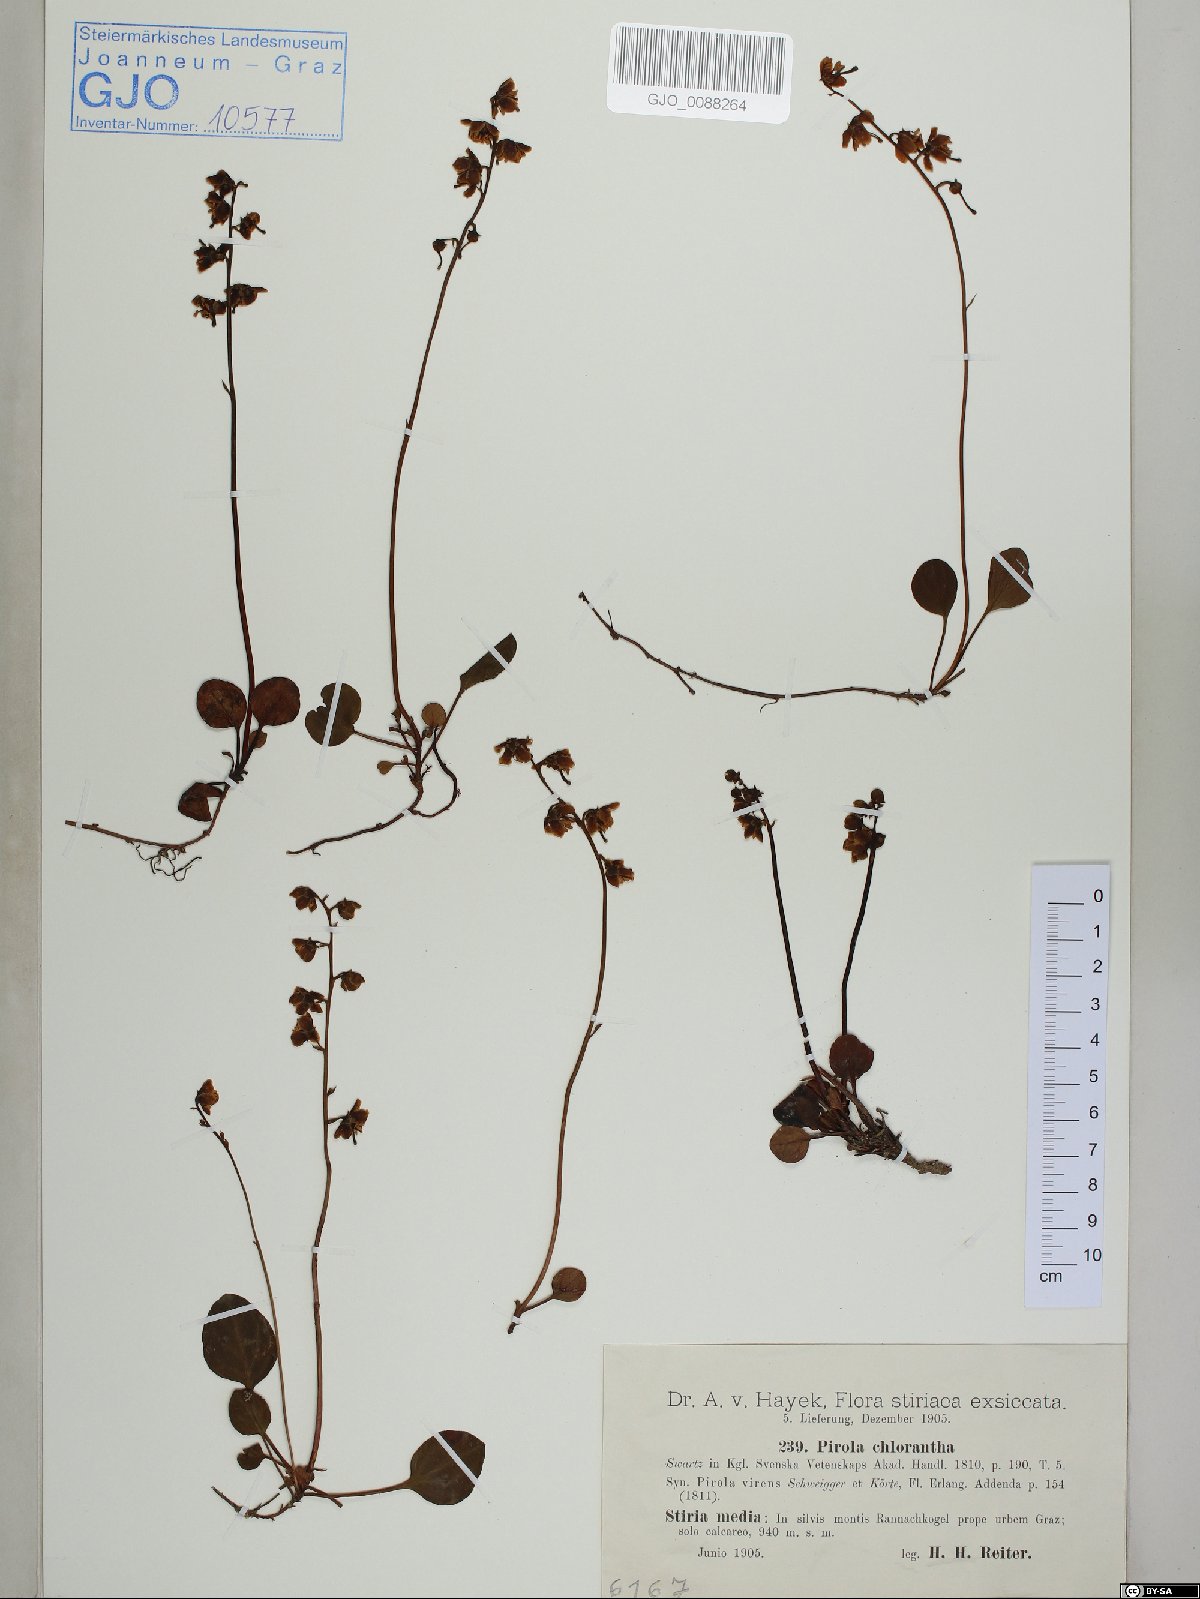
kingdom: Plantae
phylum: Tracheophyta
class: Magnoliopsida
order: Ericales
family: Ericaceae
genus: Pyrola
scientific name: Pyrola chlorantha
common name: Green wintergreen
